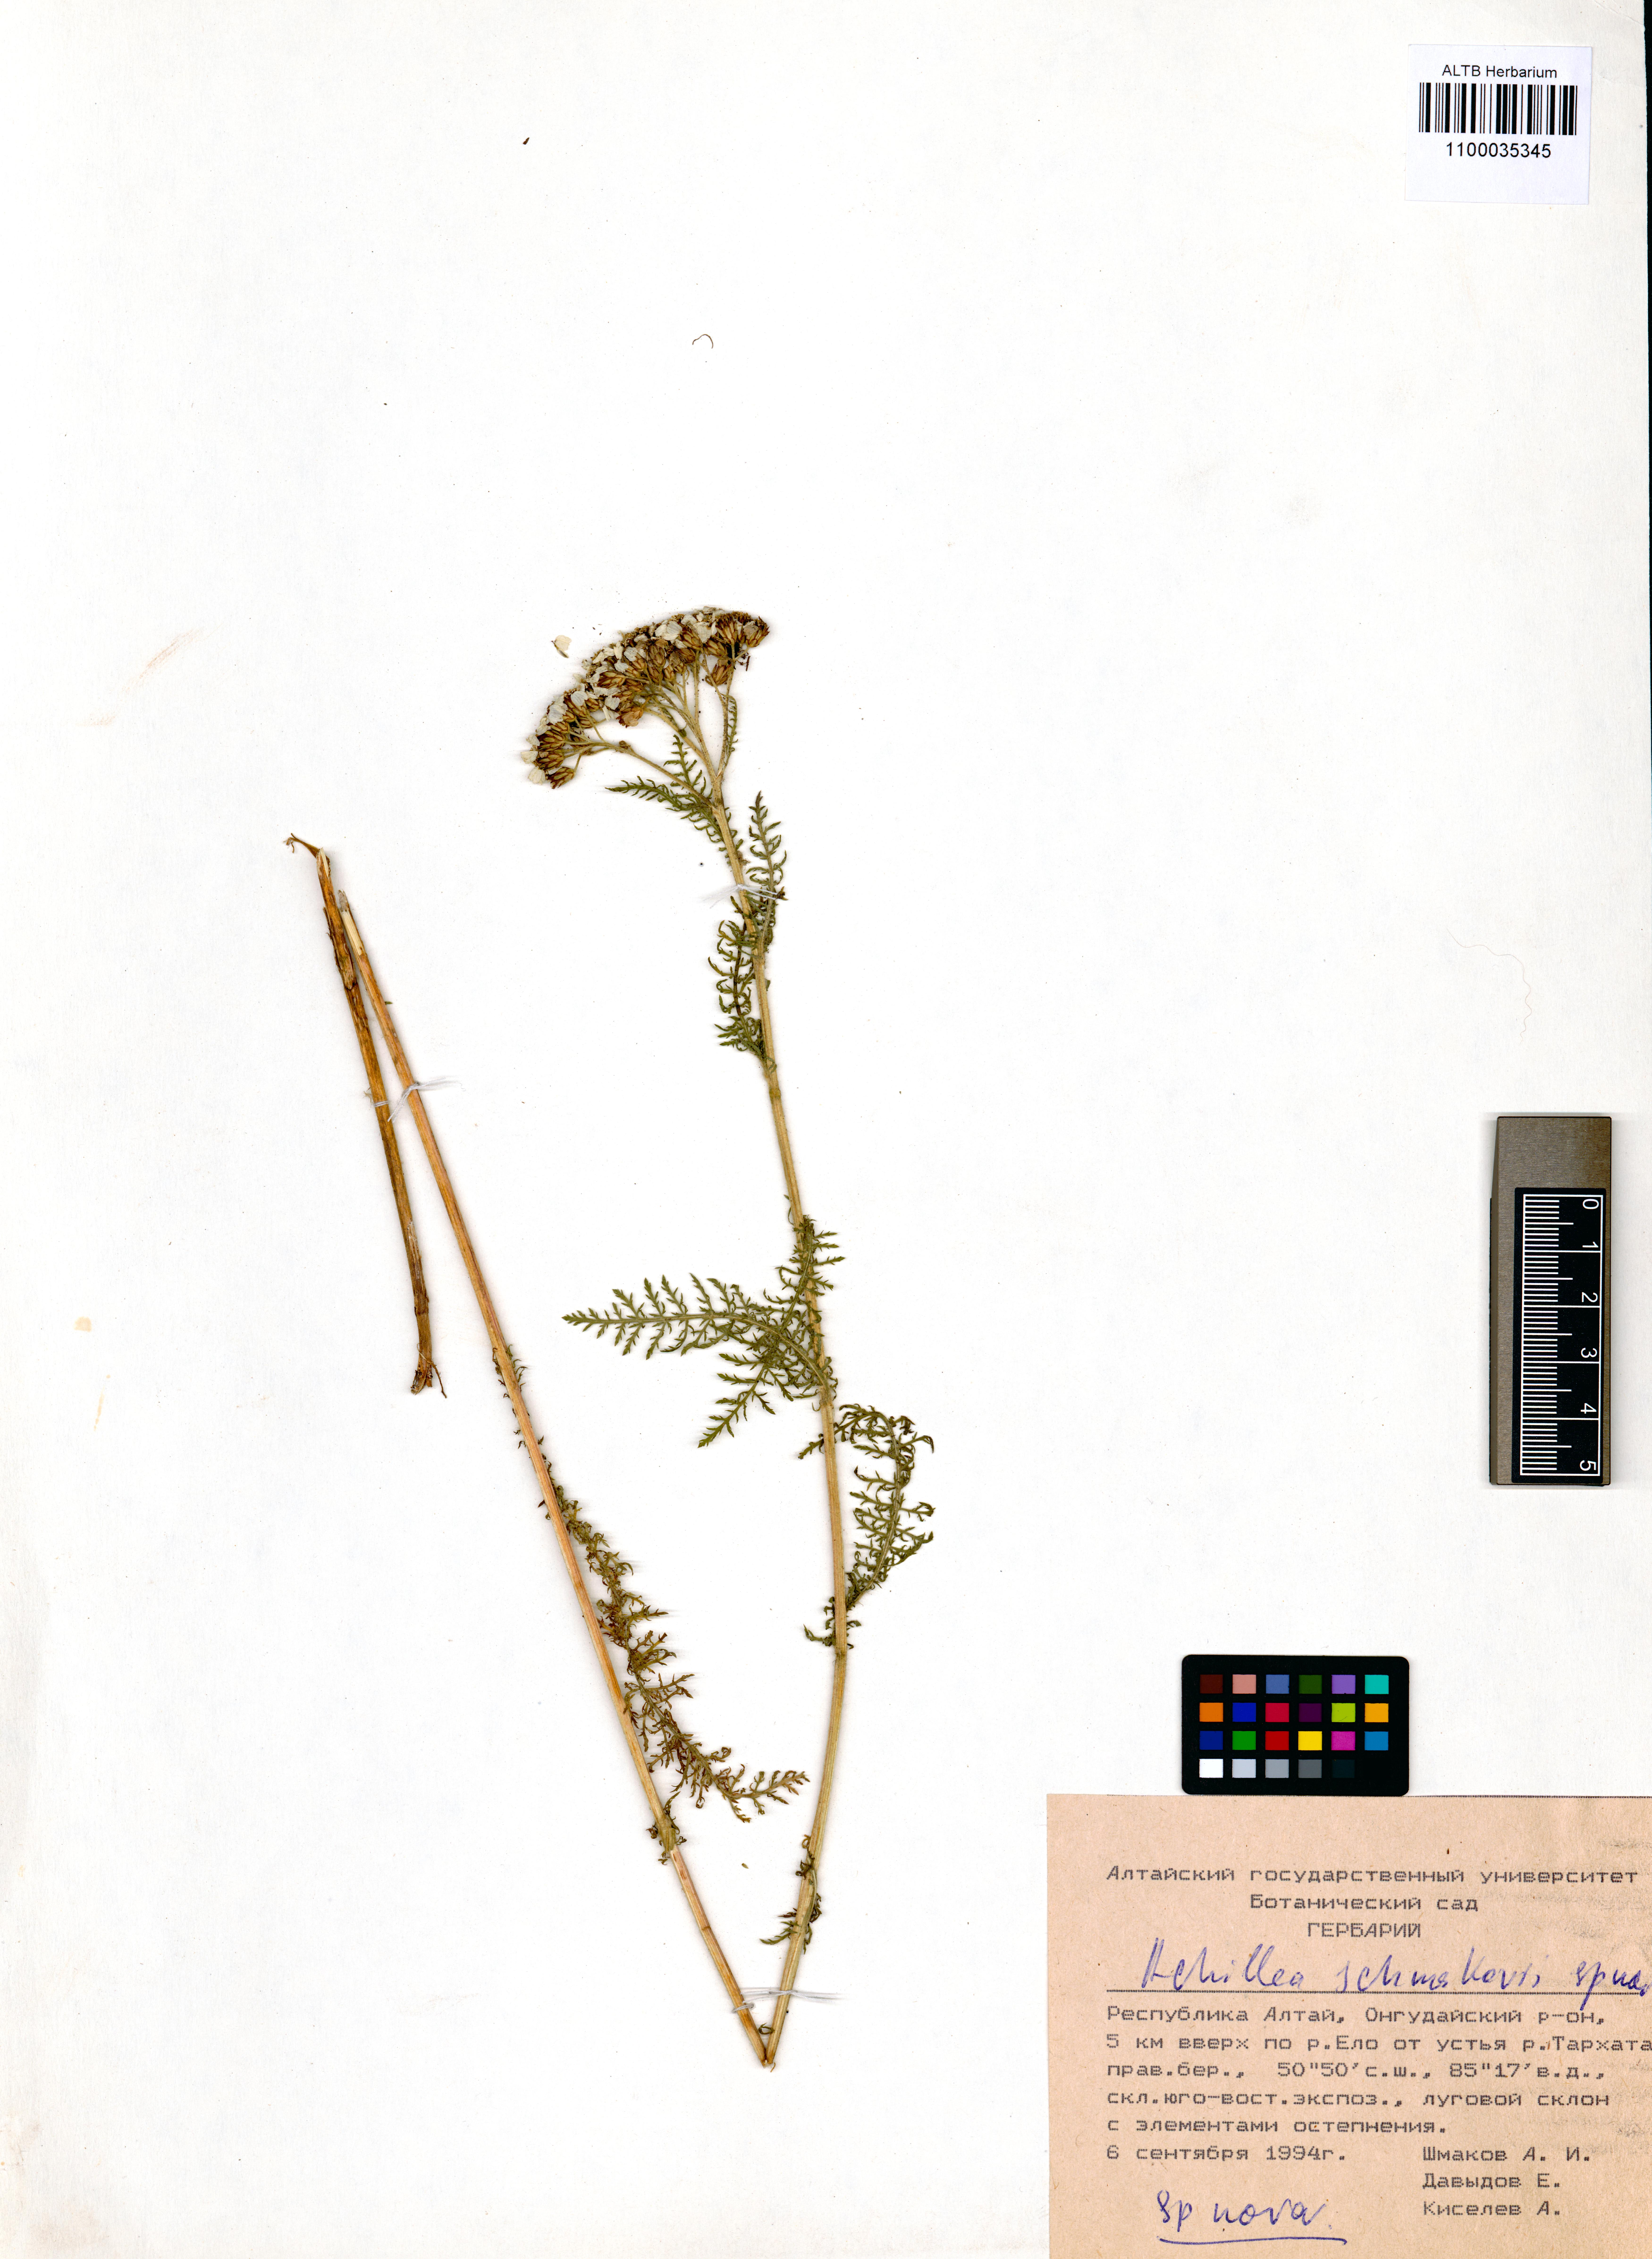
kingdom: Plantae
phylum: Tracheophyta
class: Magnoliopsida
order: Asterales
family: Asteraceae
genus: Achillea
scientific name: Achillea schmakovii
